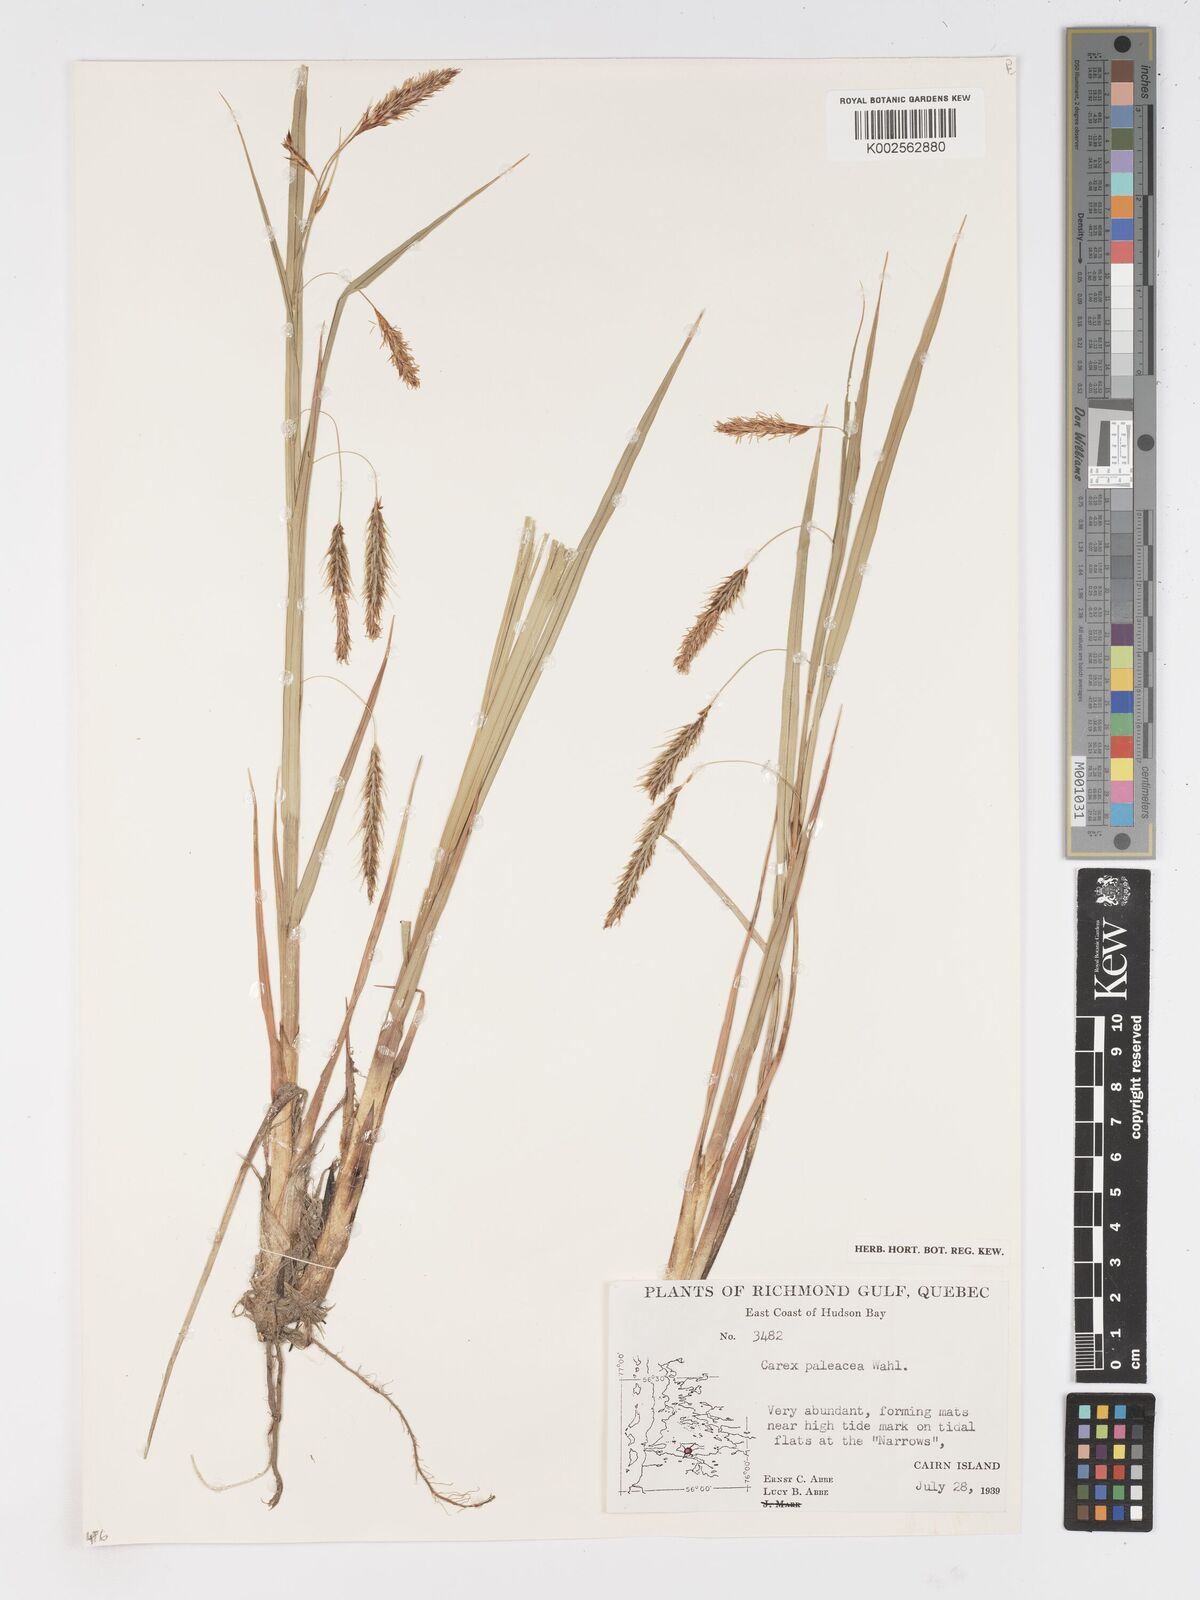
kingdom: Plantae
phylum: Tracheophyta
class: Liliopsida
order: Poales
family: Cyperaceae
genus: Carex
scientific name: Carex paleacea
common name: Chaffy sedge
